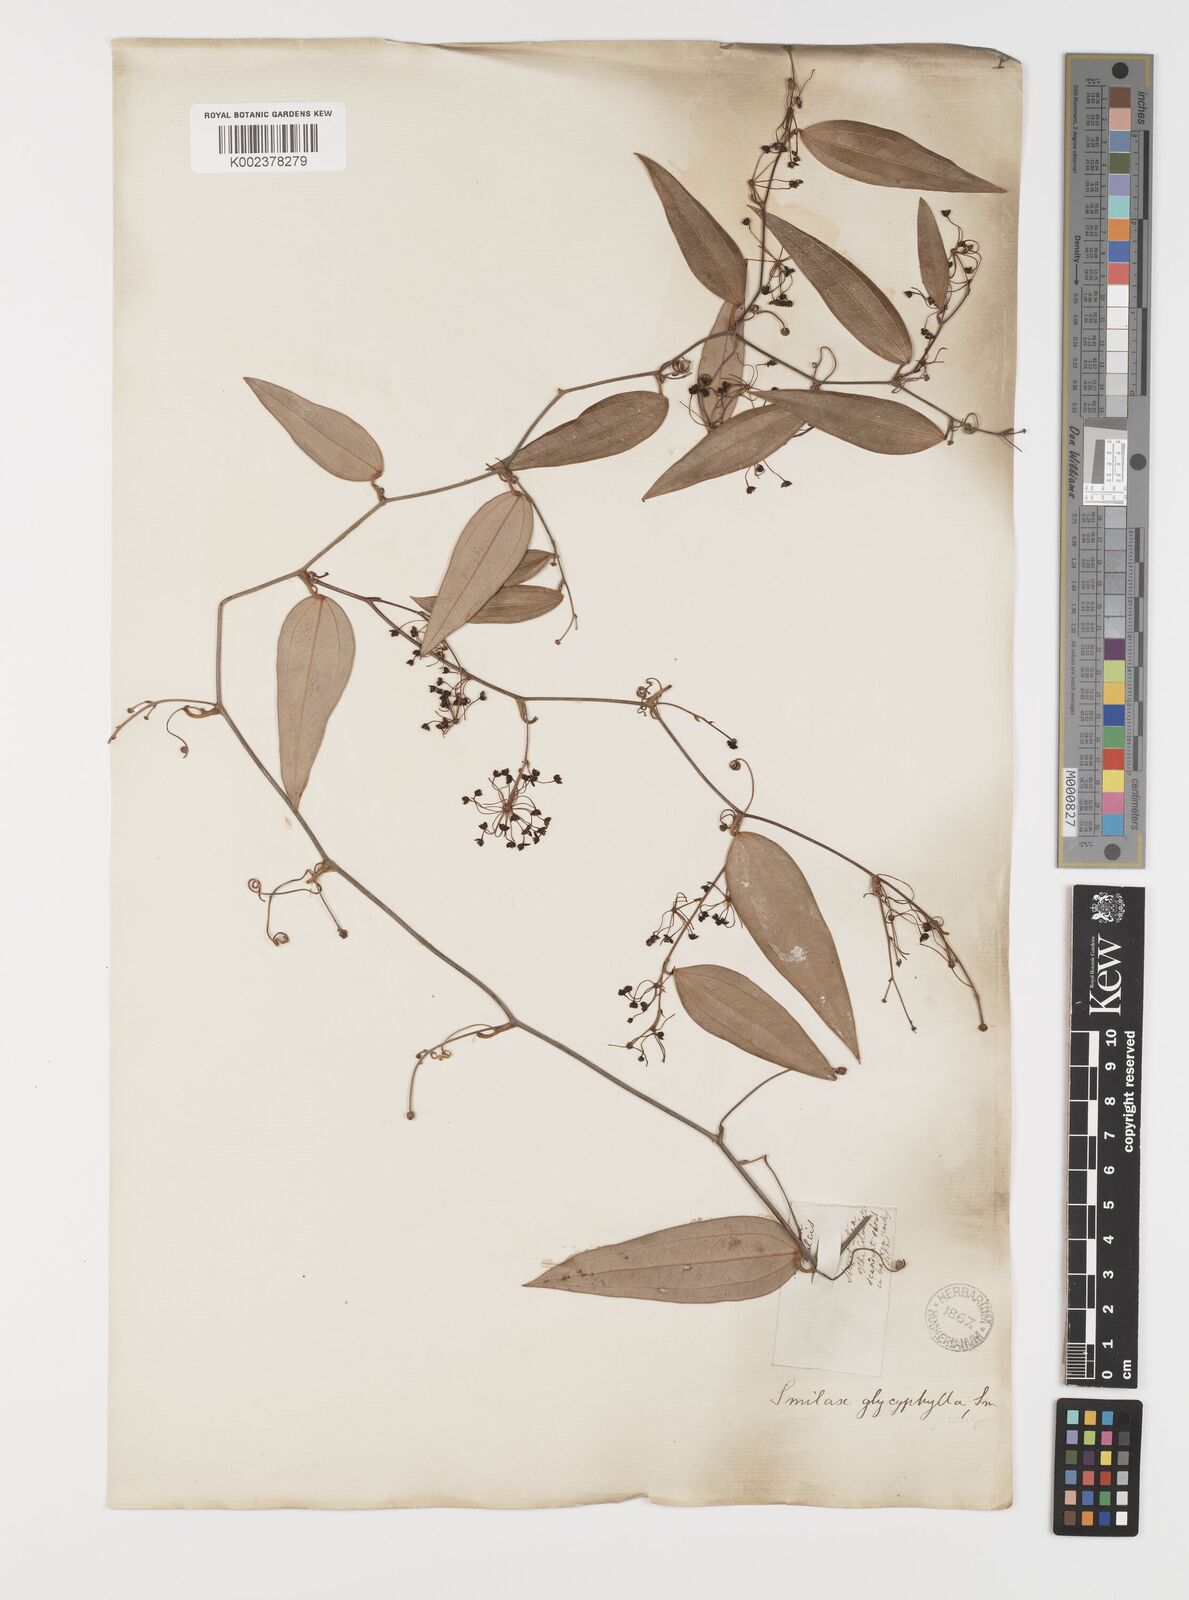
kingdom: Plantae
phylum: Tracheophyta
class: Liliopsida
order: Liliales
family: Smilacaceae
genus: Smilax
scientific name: Smilax leucophylla
